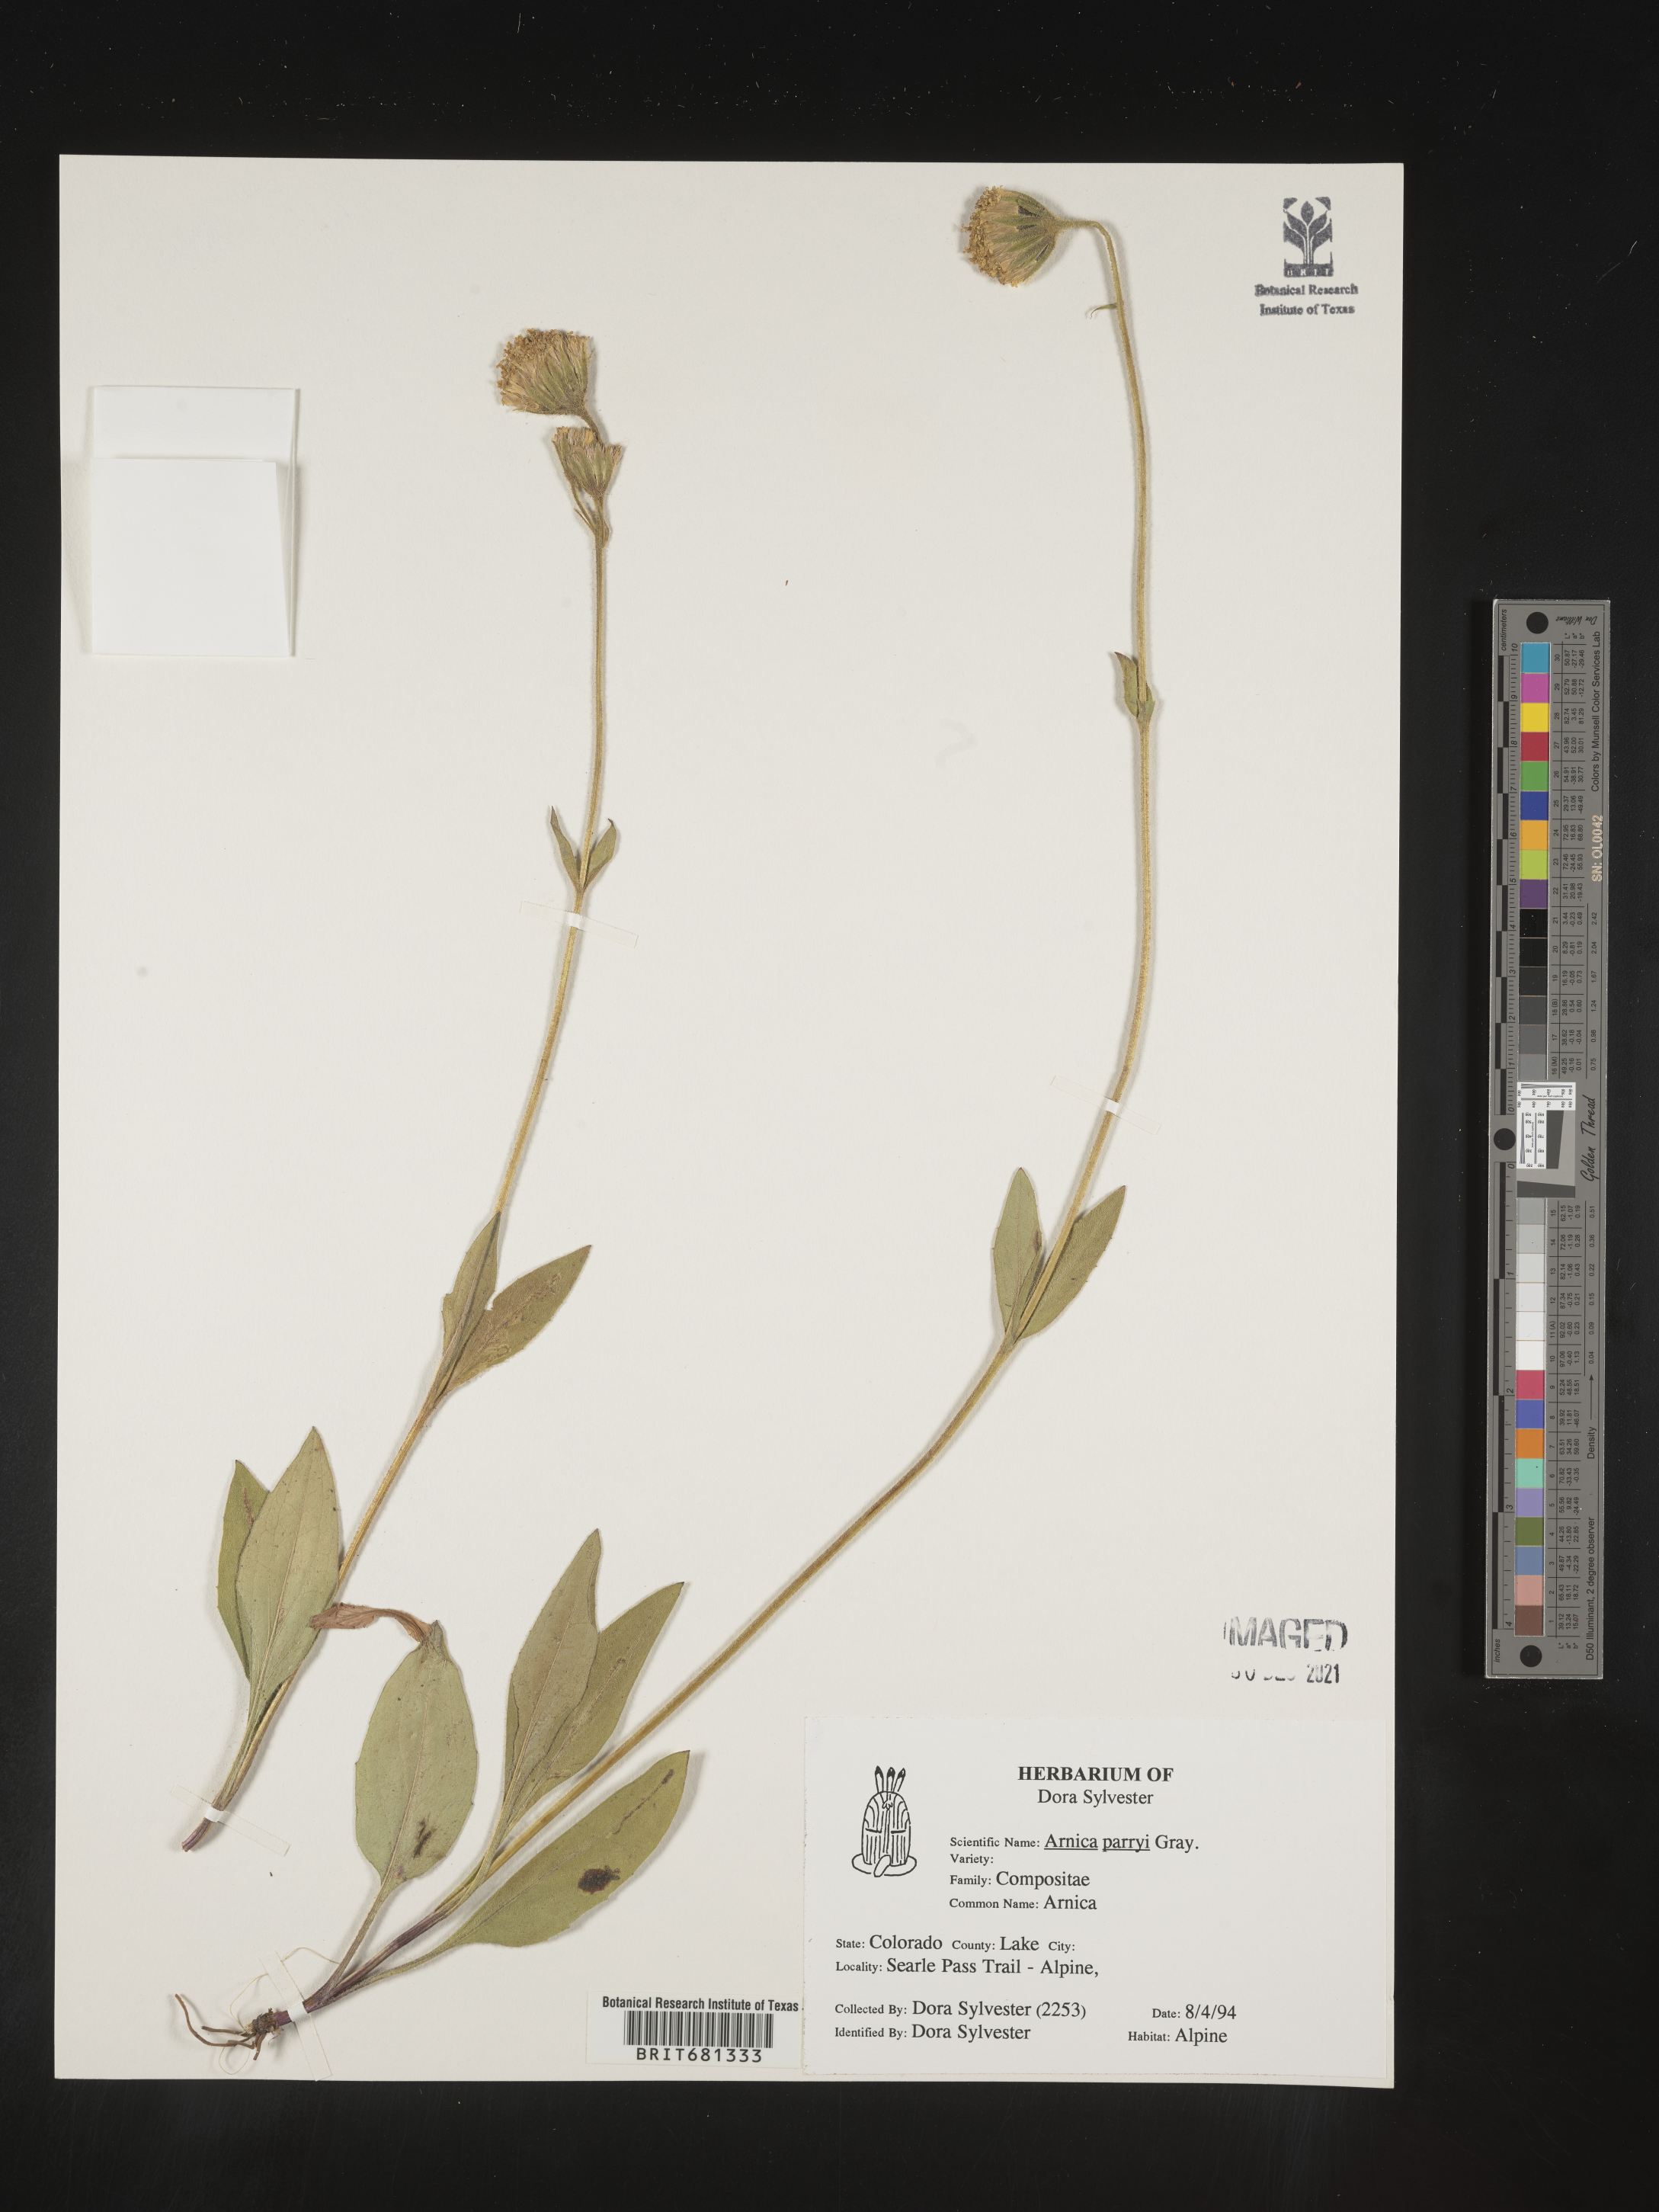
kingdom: Plantae
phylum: Tracheophyta
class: Magnoliopsida
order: Asterales
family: Asteraceae
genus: Arnica
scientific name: Arnica parryi
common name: Parry's arnica
